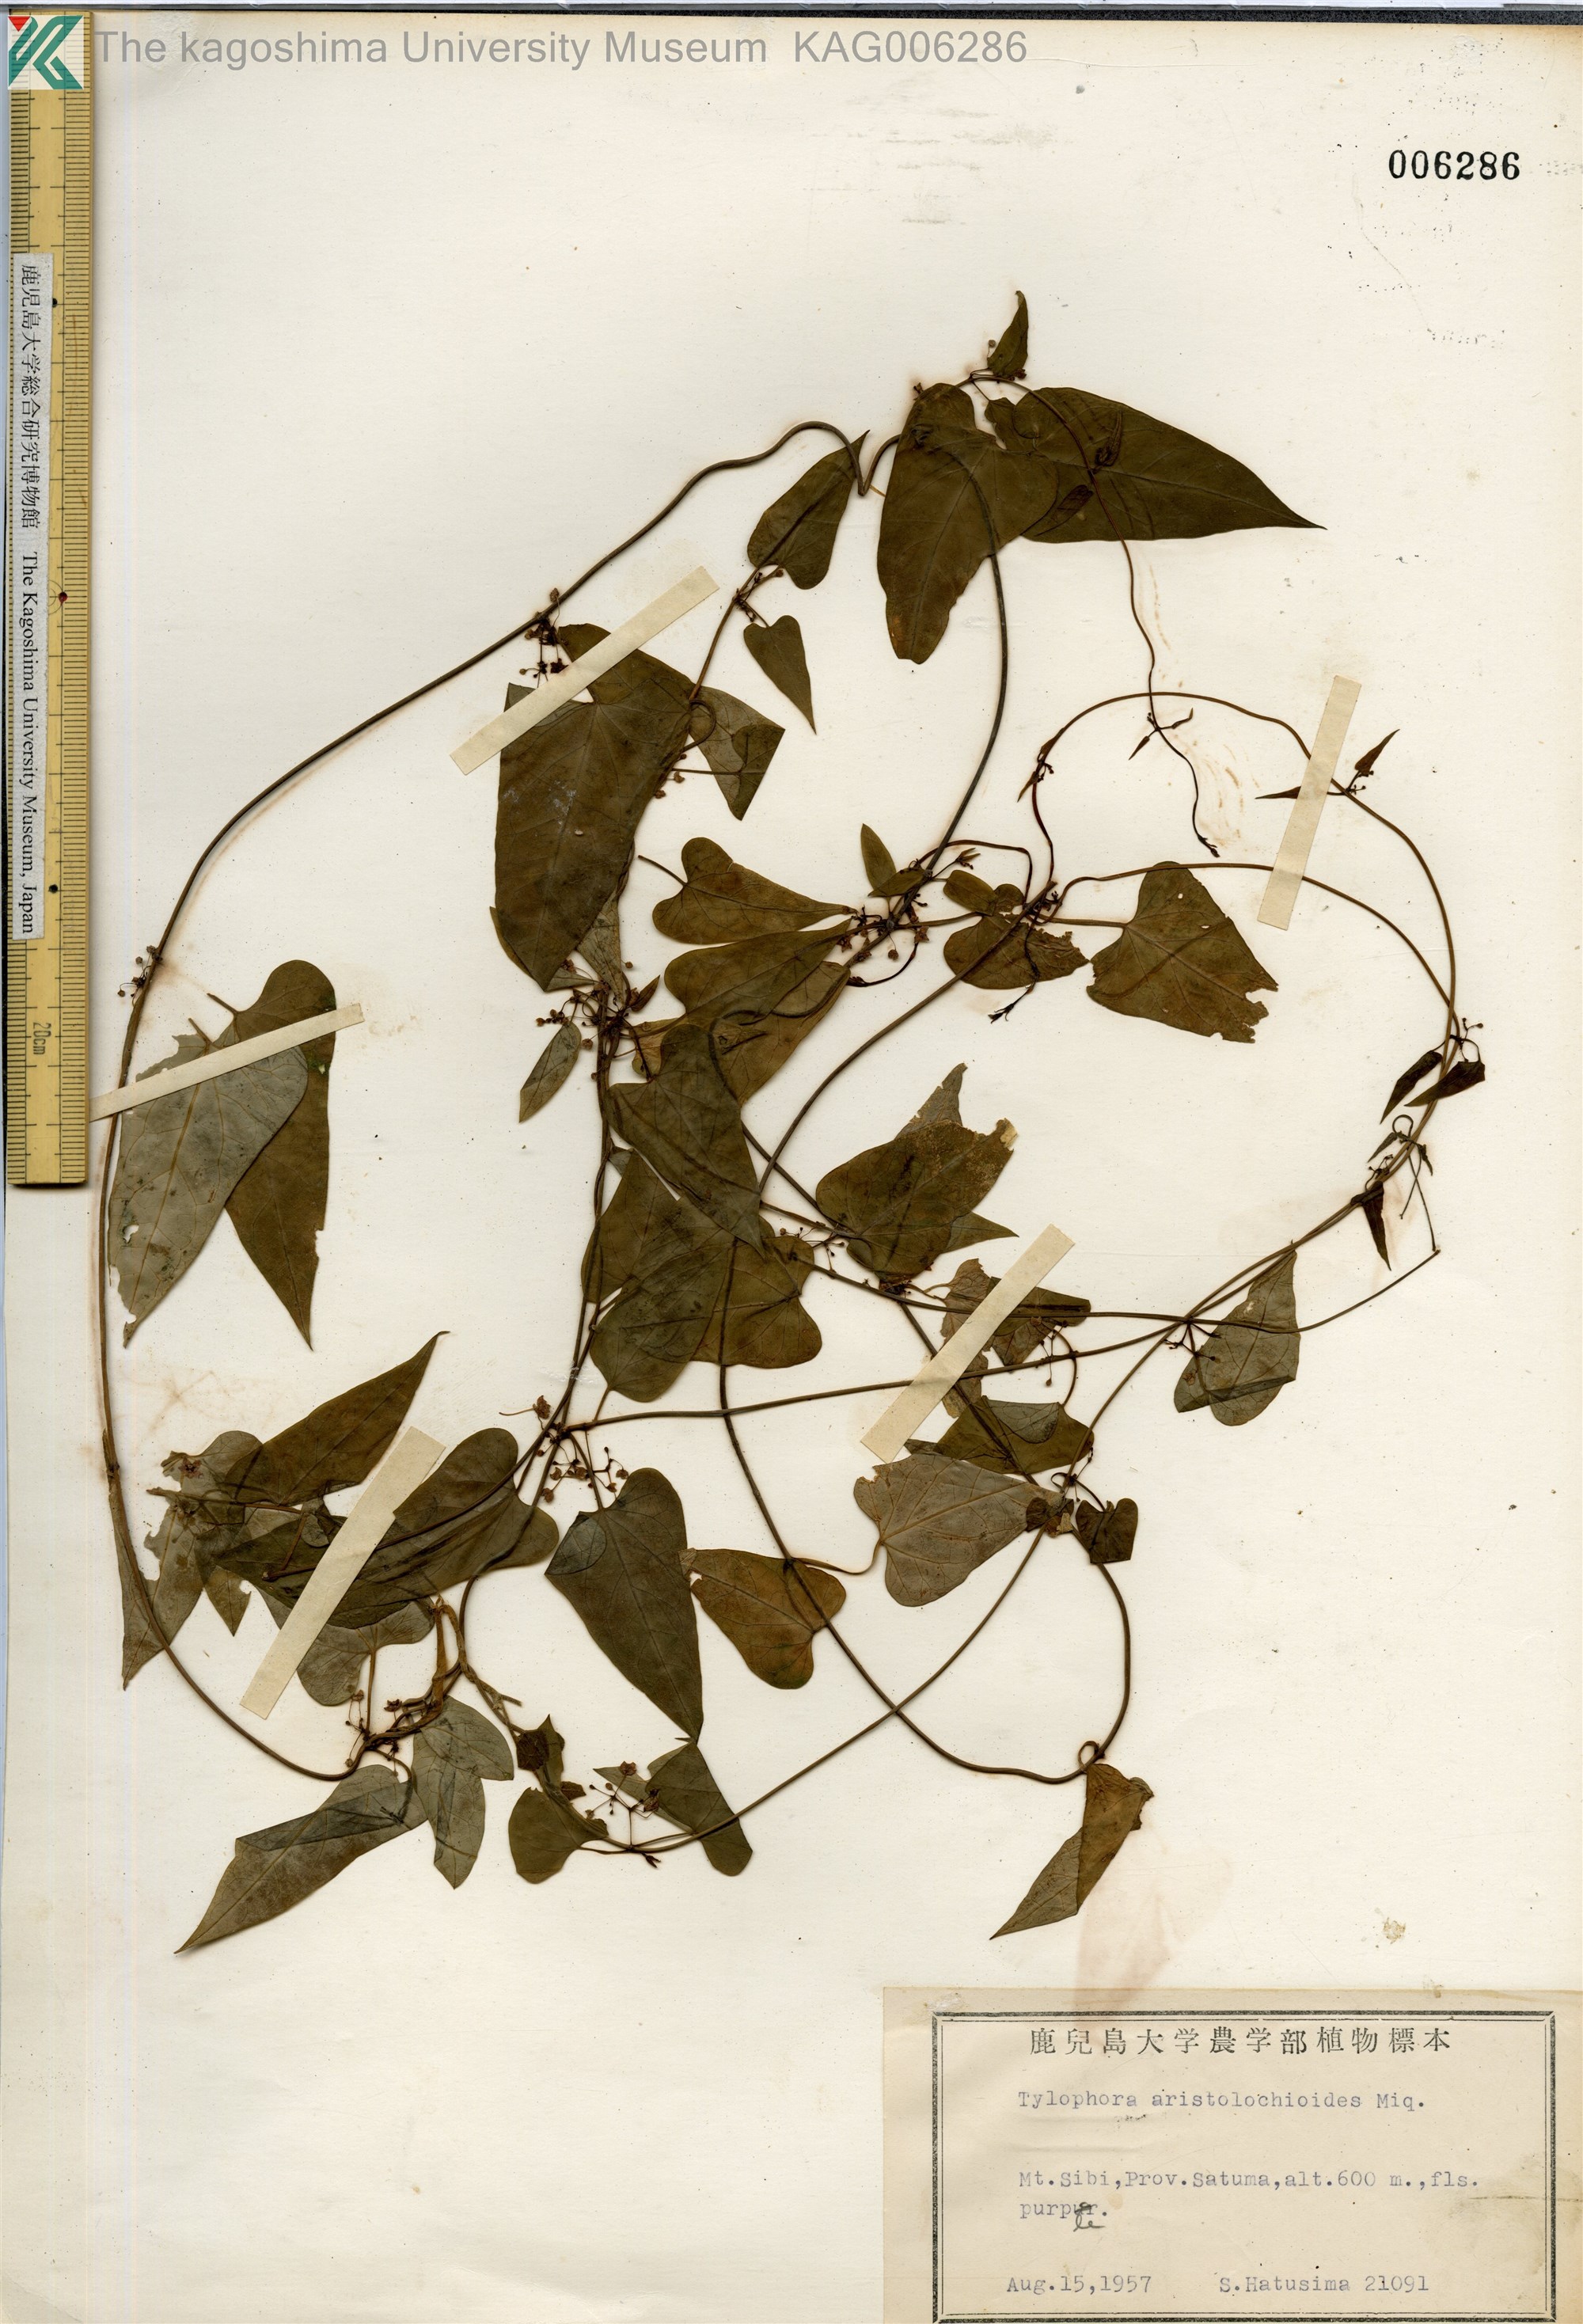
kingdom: Plantae
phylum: Tracheophyta
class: Magnoliopsida
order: Gentianales
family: Apocynaceae
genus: Vincetoxicum
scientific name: Vincetoxicum aristolochioides
